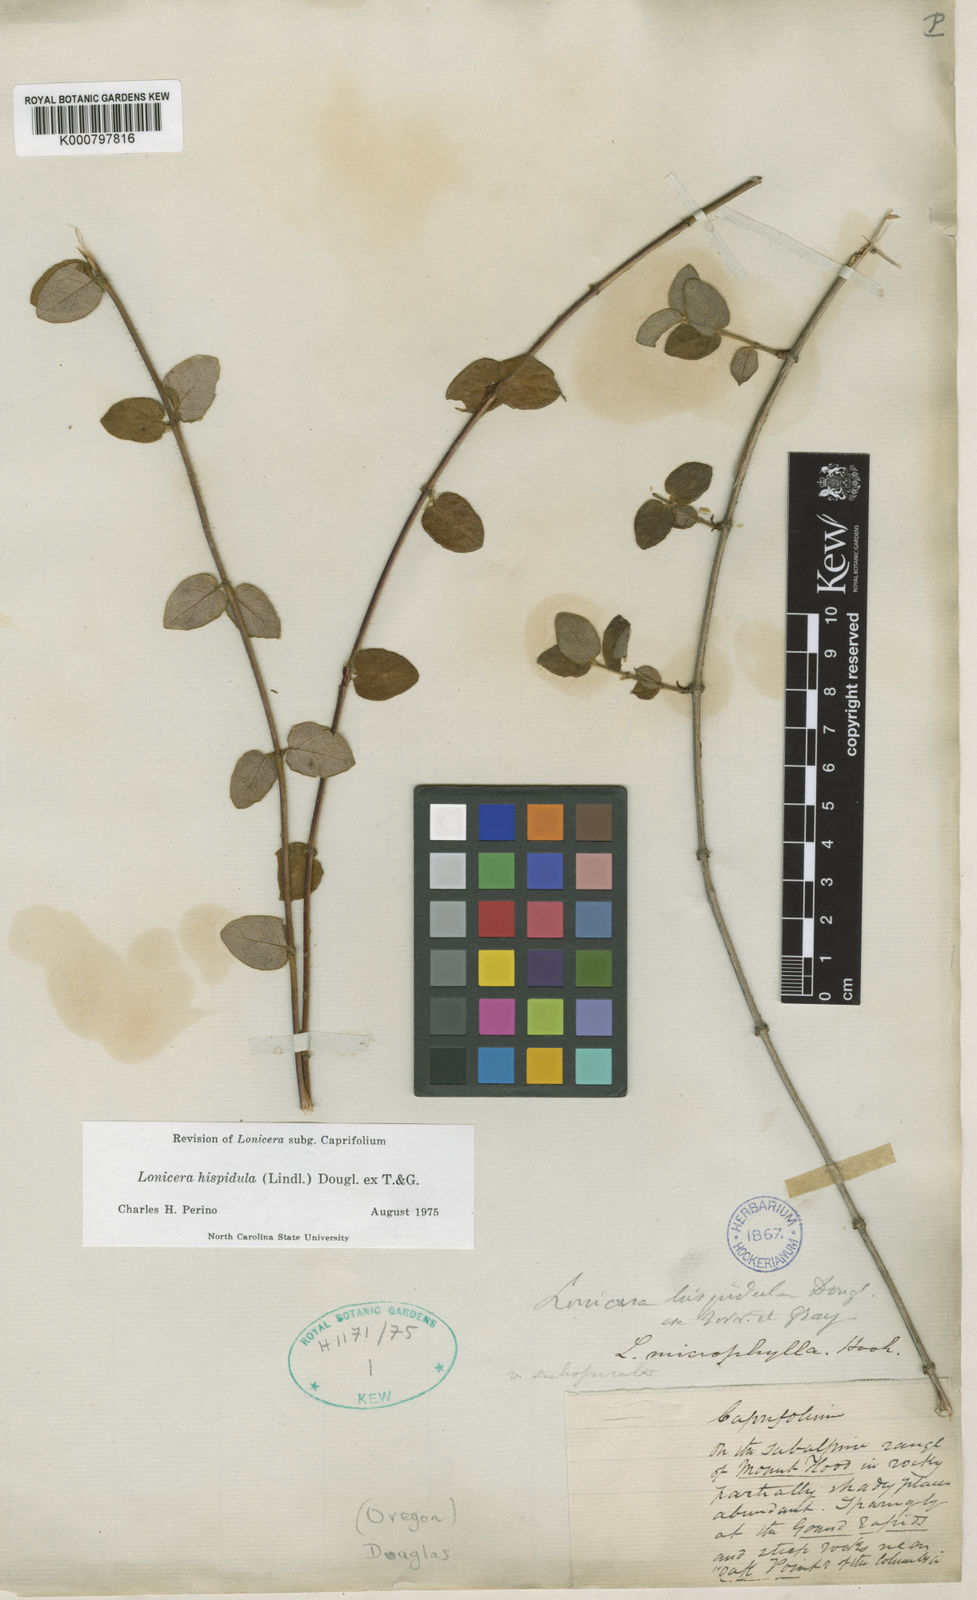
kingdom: Plantae
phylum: Tracheophyta
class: Magnoliopsida
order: Dipsacales
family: Caprifoliaceae
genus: Lonicera
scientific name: Lonicera hispidula
